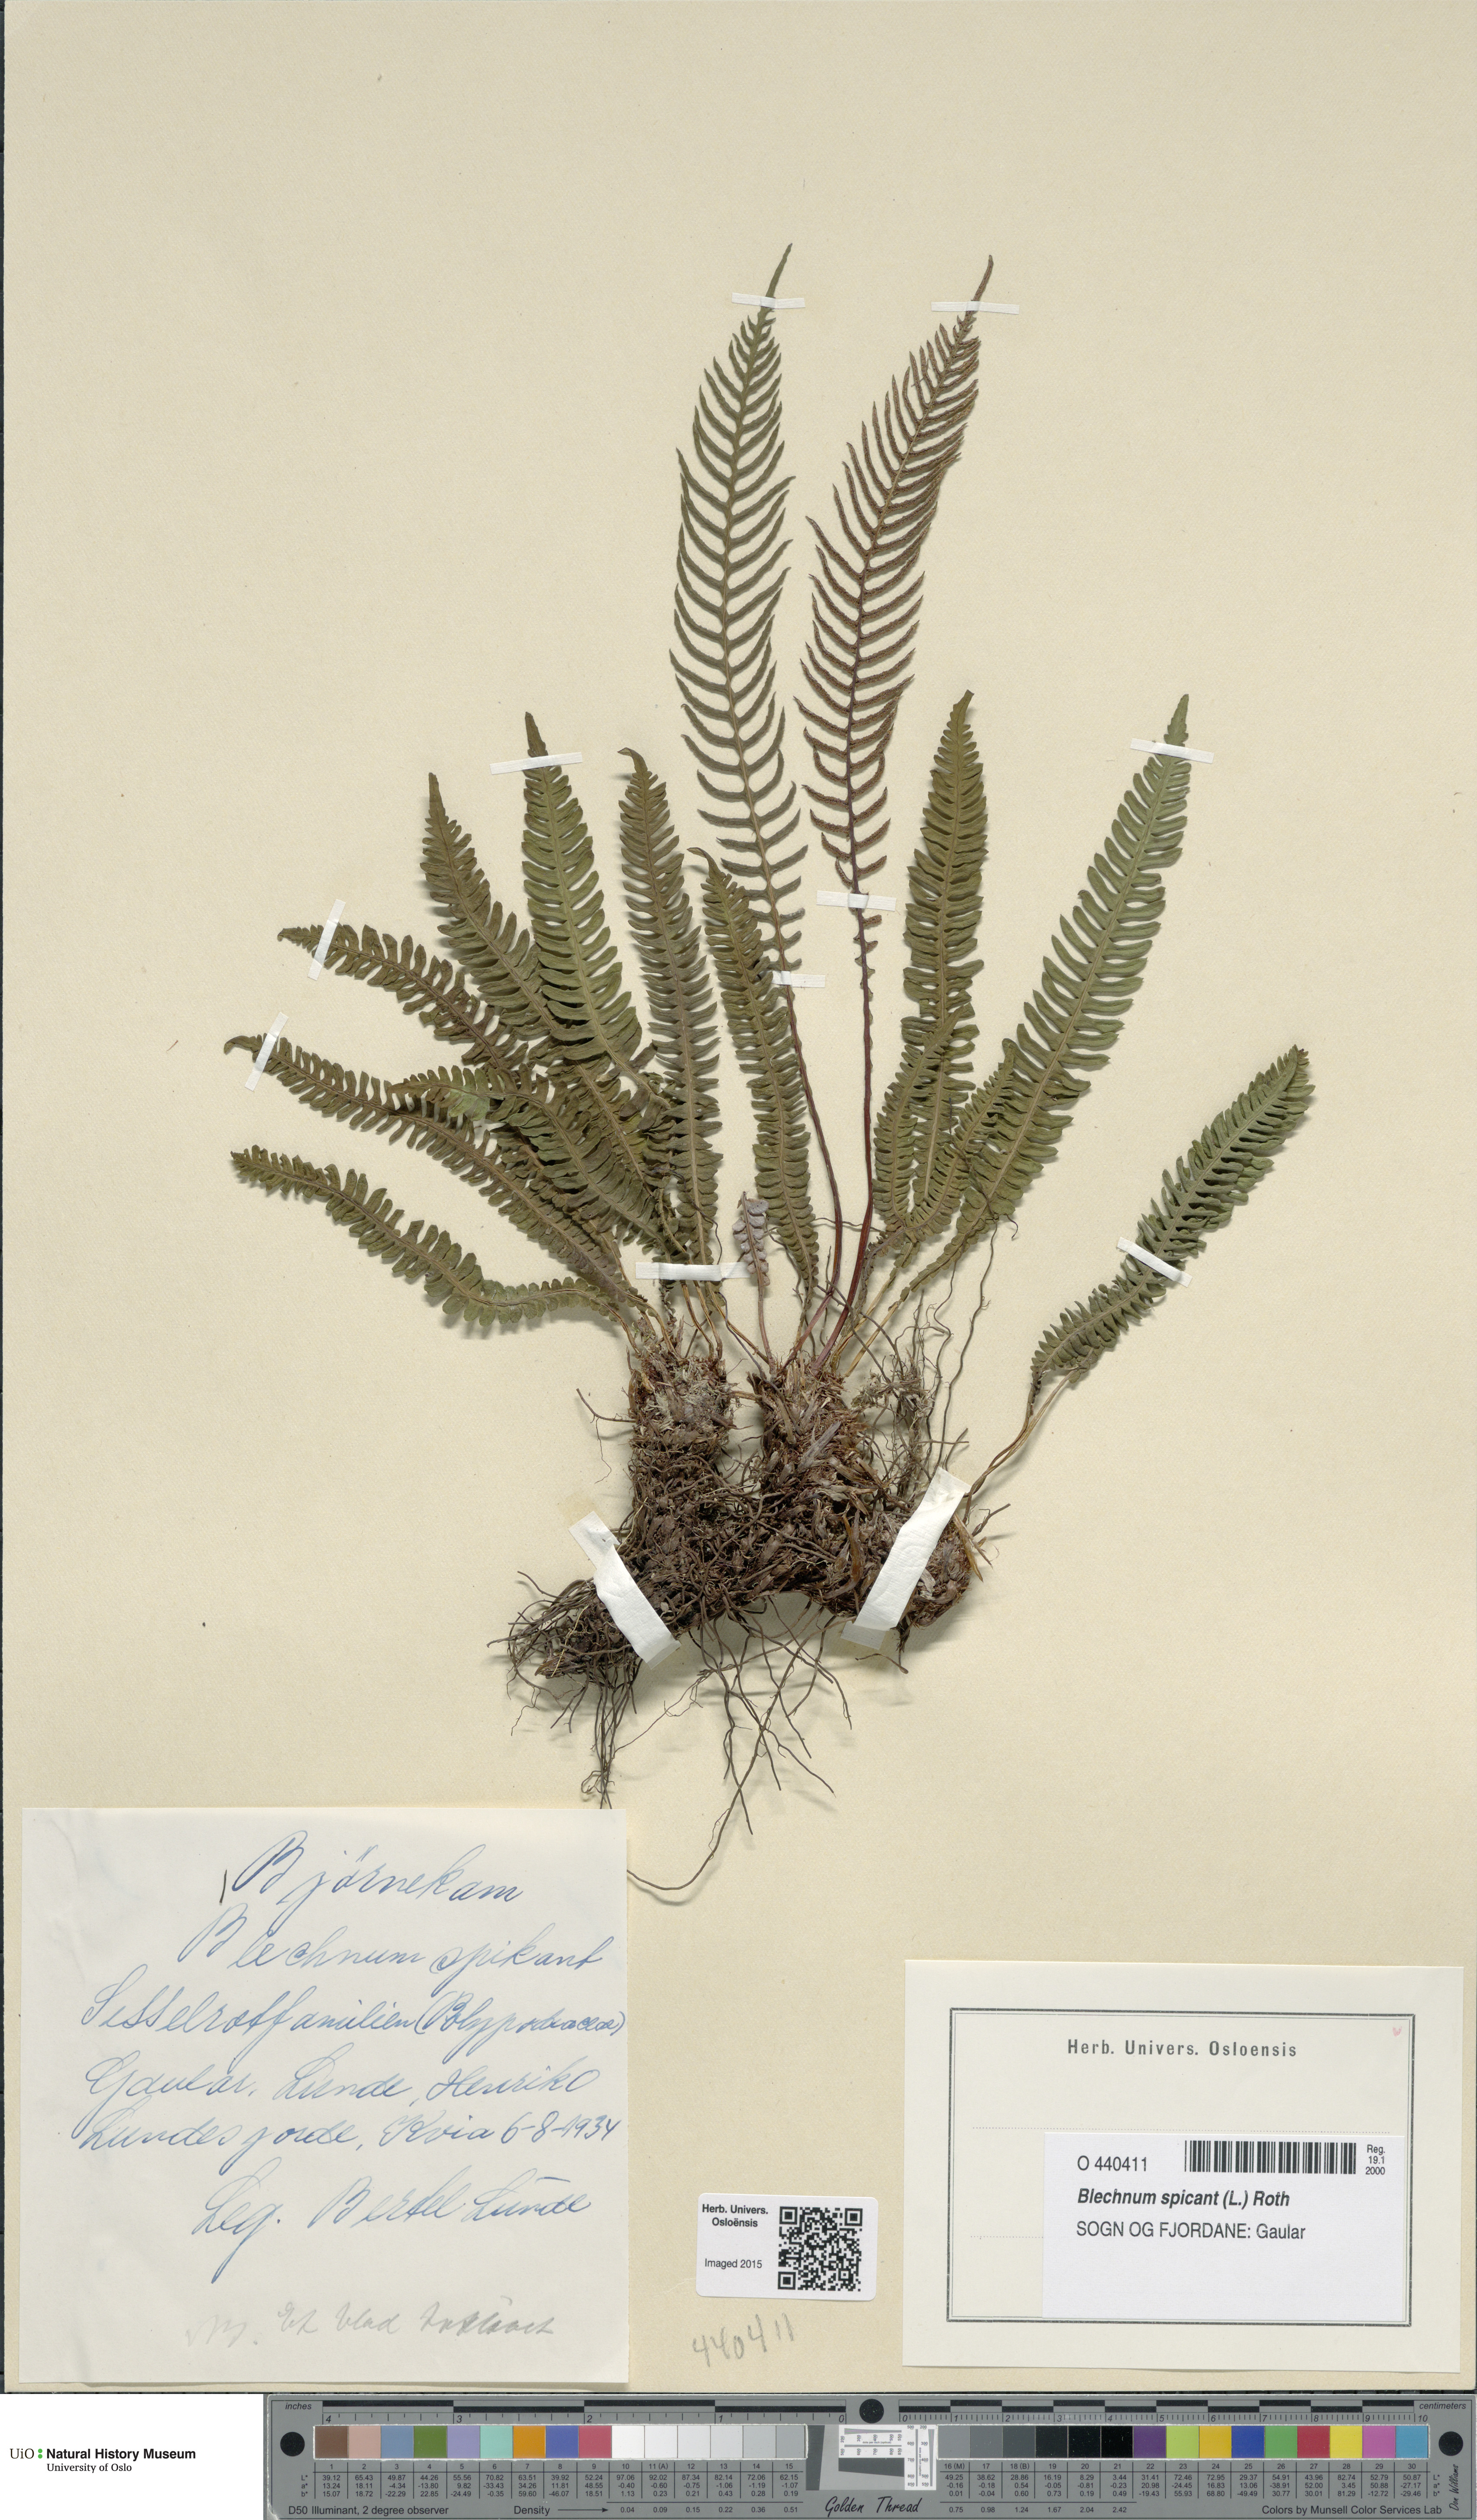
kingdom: Plantae
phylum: Tracheophyta
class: Polypodiopsida
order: Polypodiales
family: Blechnaceae
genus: Struthiopteris
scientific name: Struthiopteris spicant
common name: Deer fern
